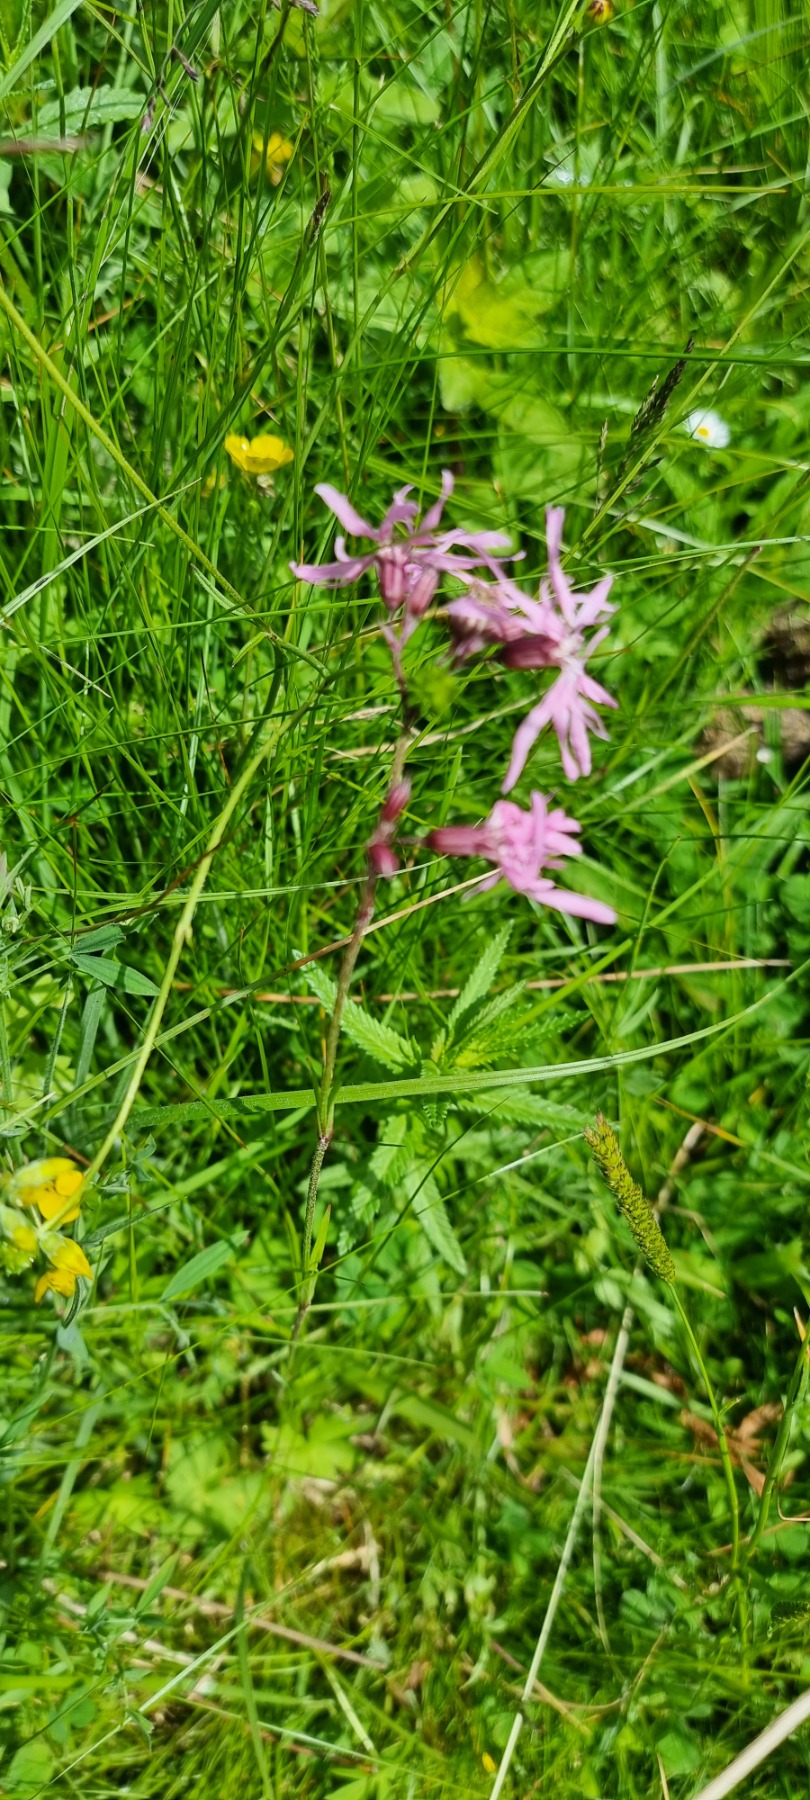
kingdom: Plantae
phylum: Tracheophyta
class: Magnoliopsida
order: Caryophyllales
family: Caryophyllaceae
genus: Silene
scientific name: Silene flos-cuculi
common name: Trævlekrone
